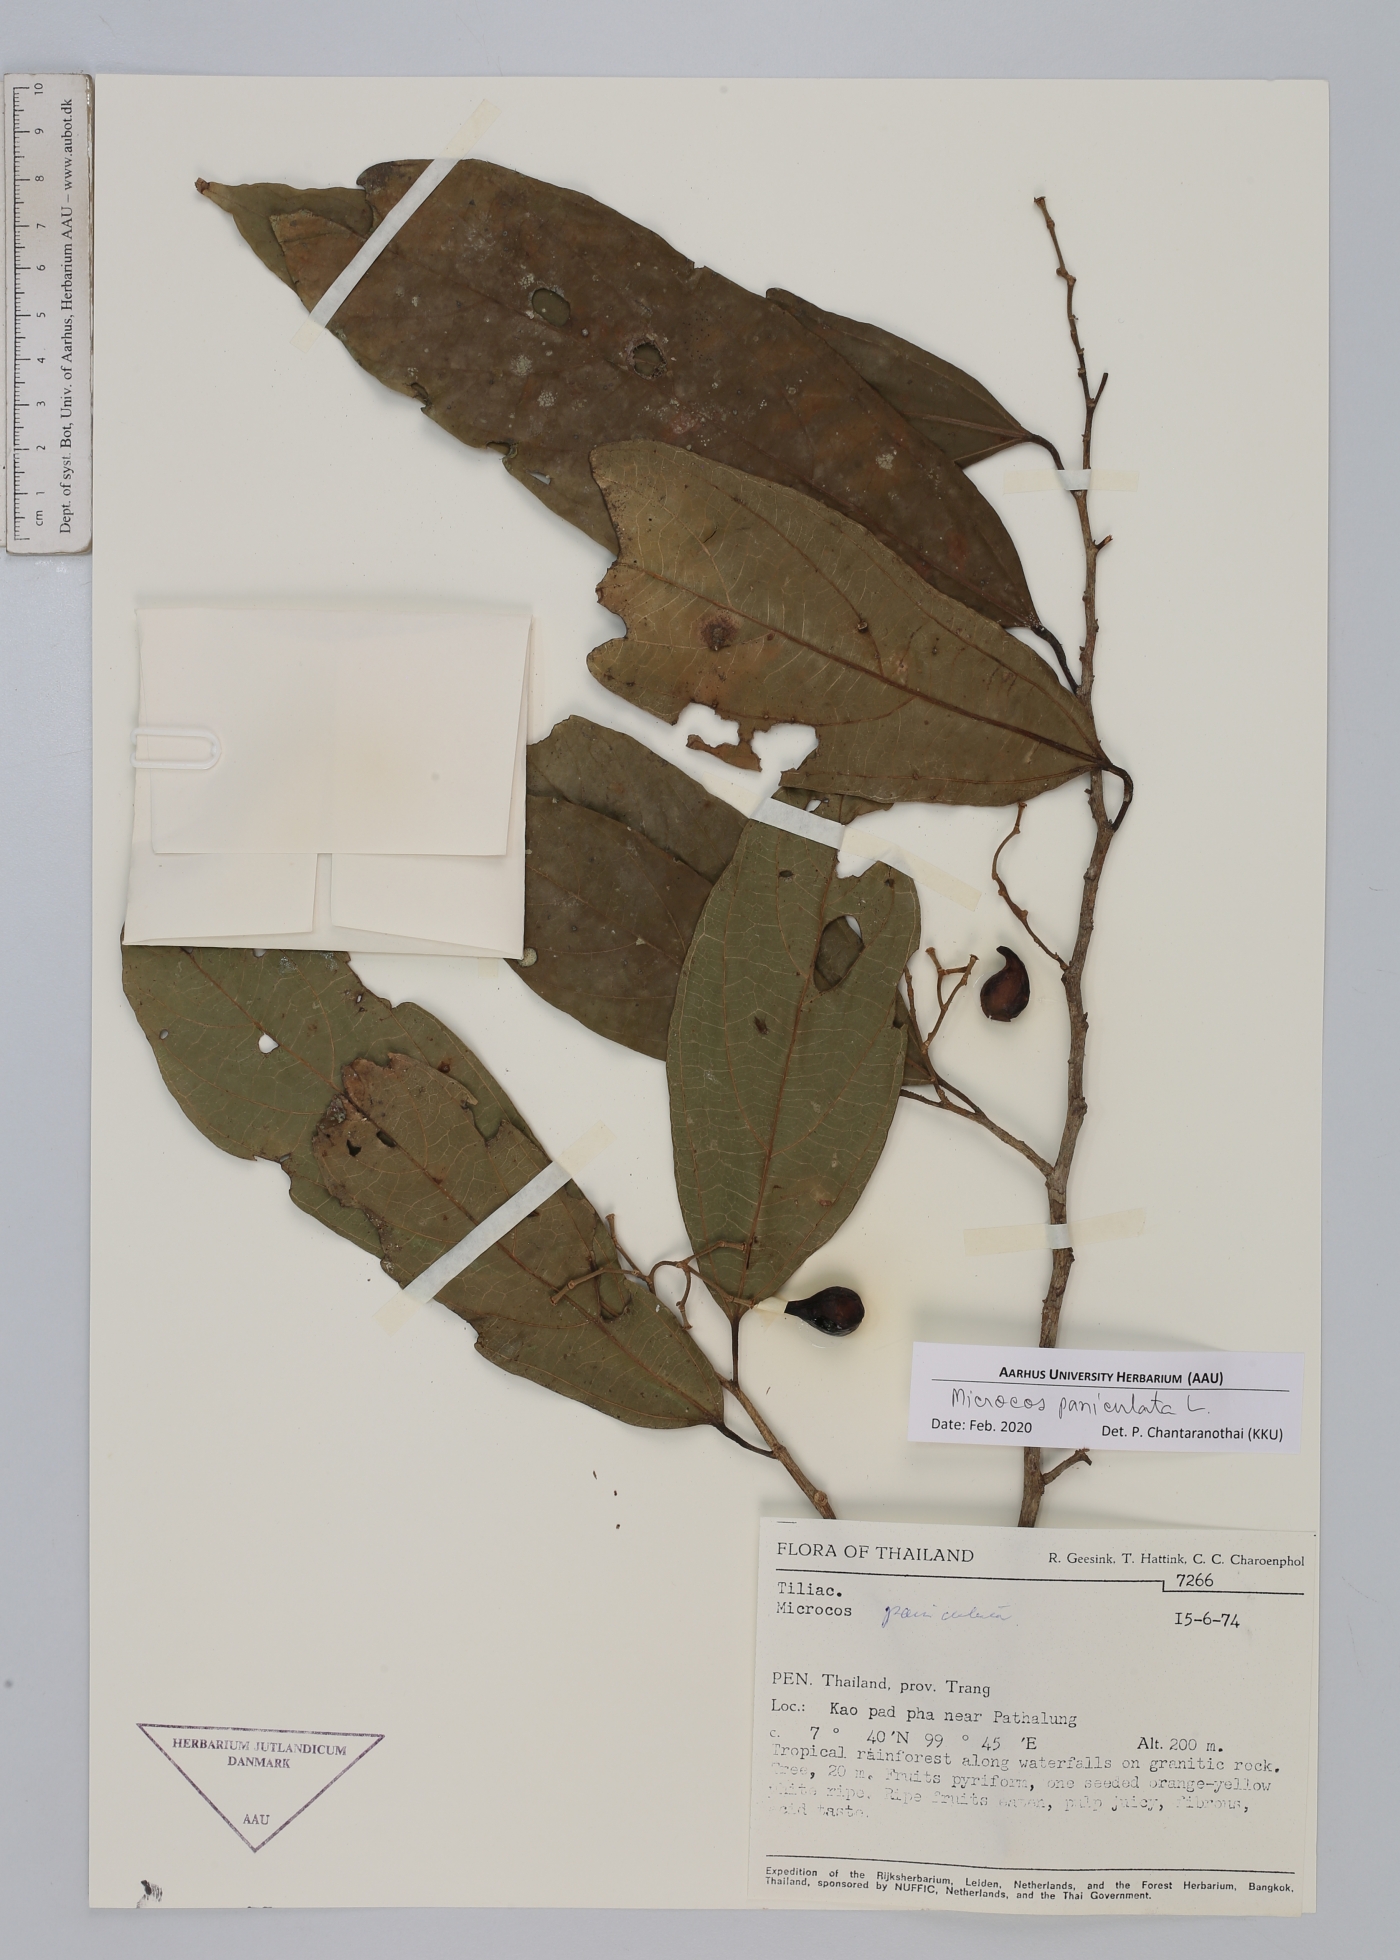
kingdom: Plantae
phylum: Tracheophyta
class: Magnoliopsida
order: Malvales
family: Malvaceae
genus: Microcos
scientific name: Microcos paniculata
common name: Microcos
